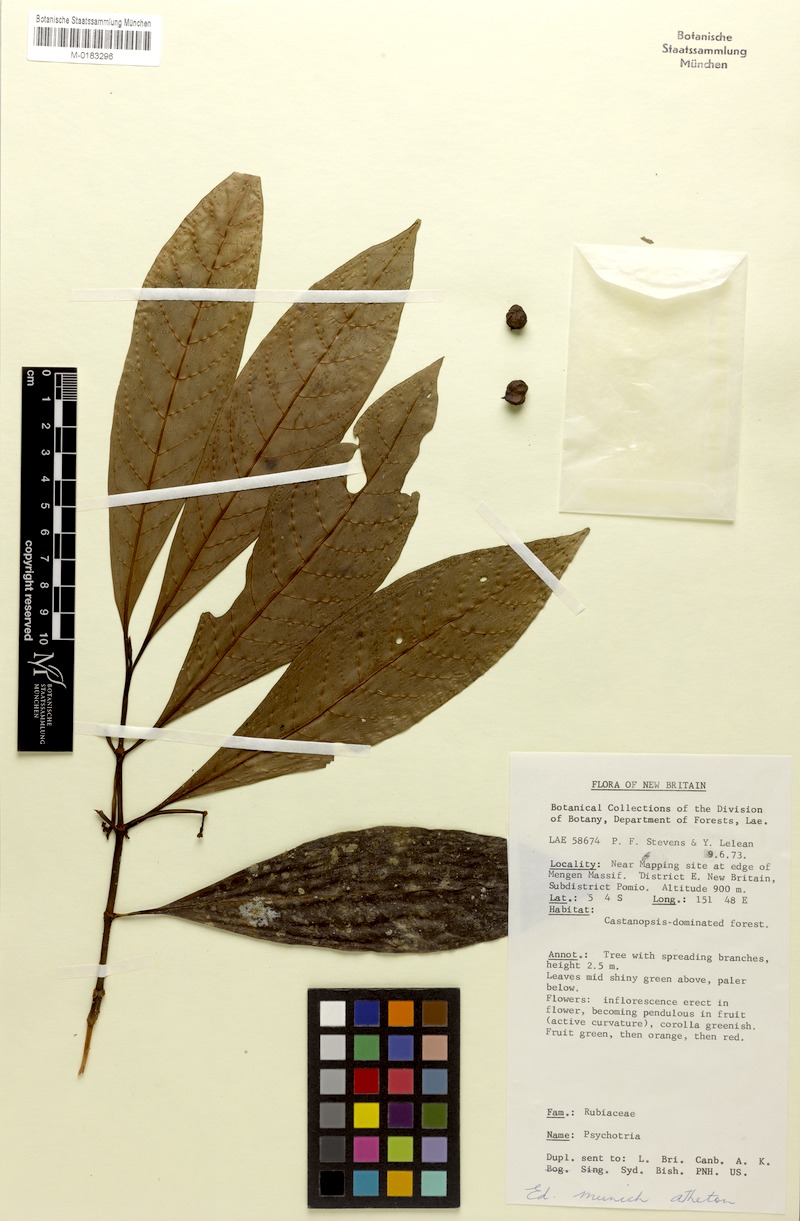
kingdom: Plantae
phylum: Tracheophyta
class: Magnoliopsida
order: Gentianales
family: Rubiaceae
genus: Psychotria
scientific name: Psychotria leleana
